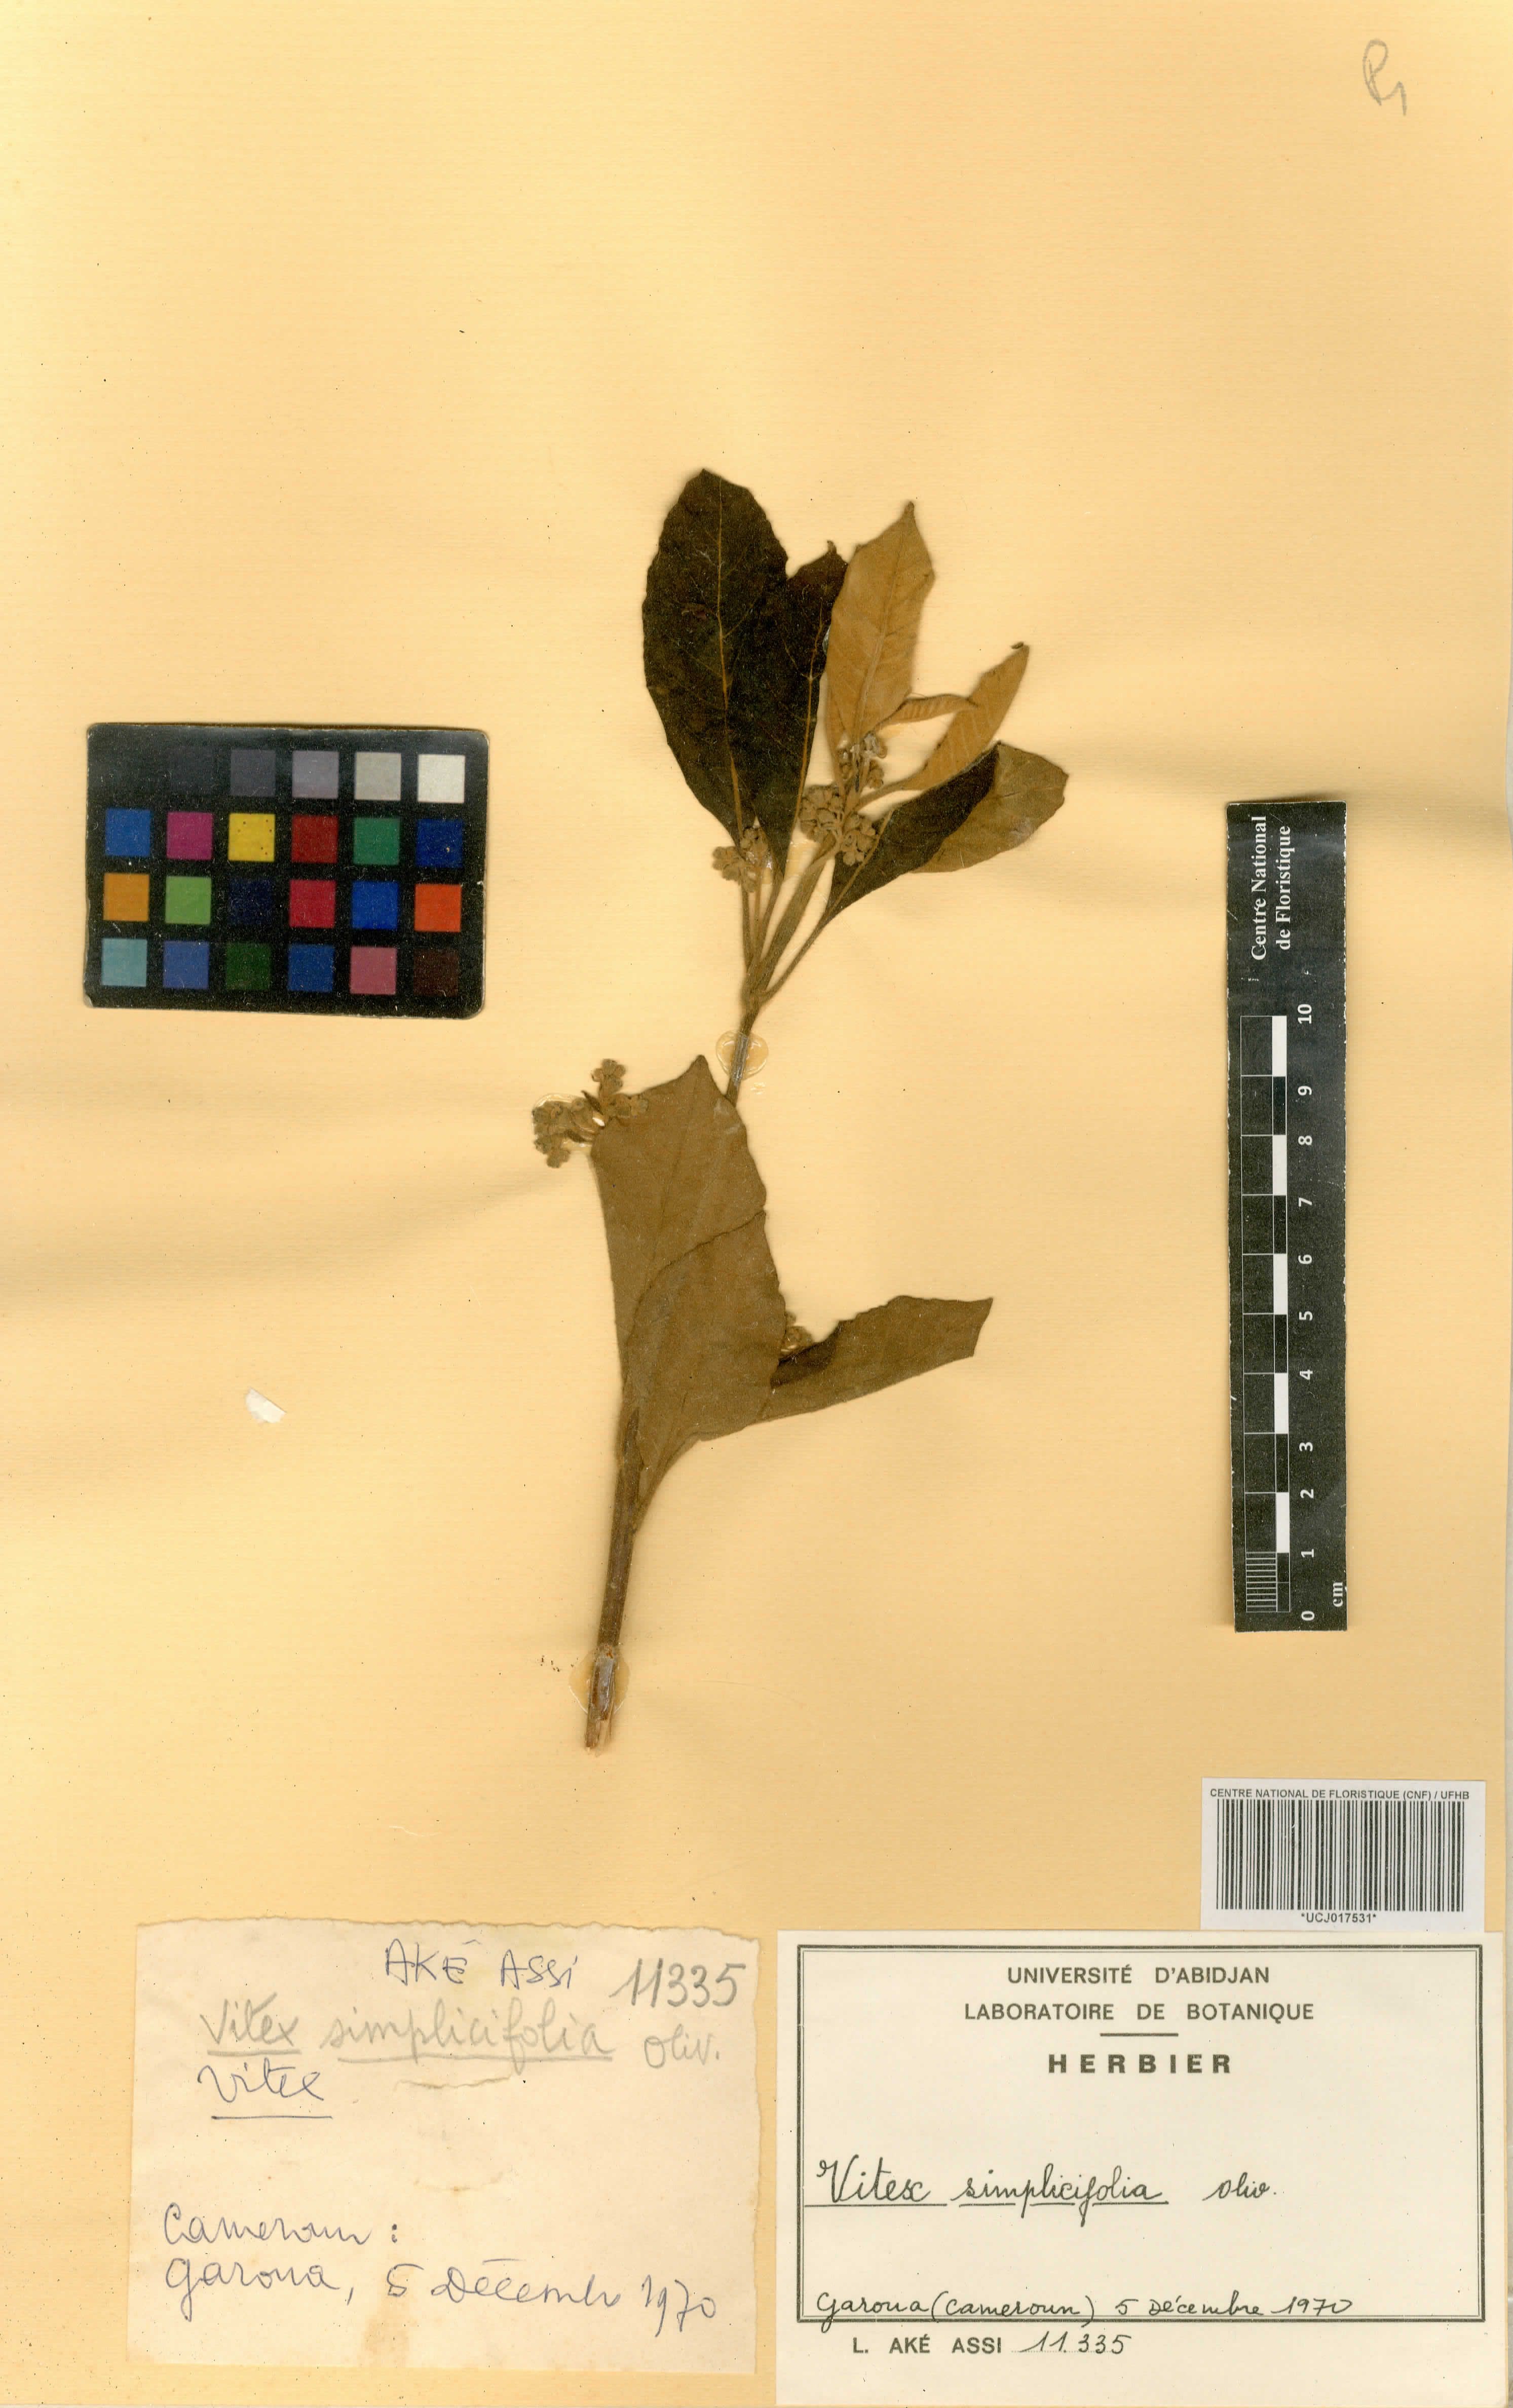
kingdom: Plantae
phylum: Tracheophyta
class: Magnoliopsida
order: Lamiales
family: Lamiaceae
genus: Vitex
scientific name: Vitex madiensis
